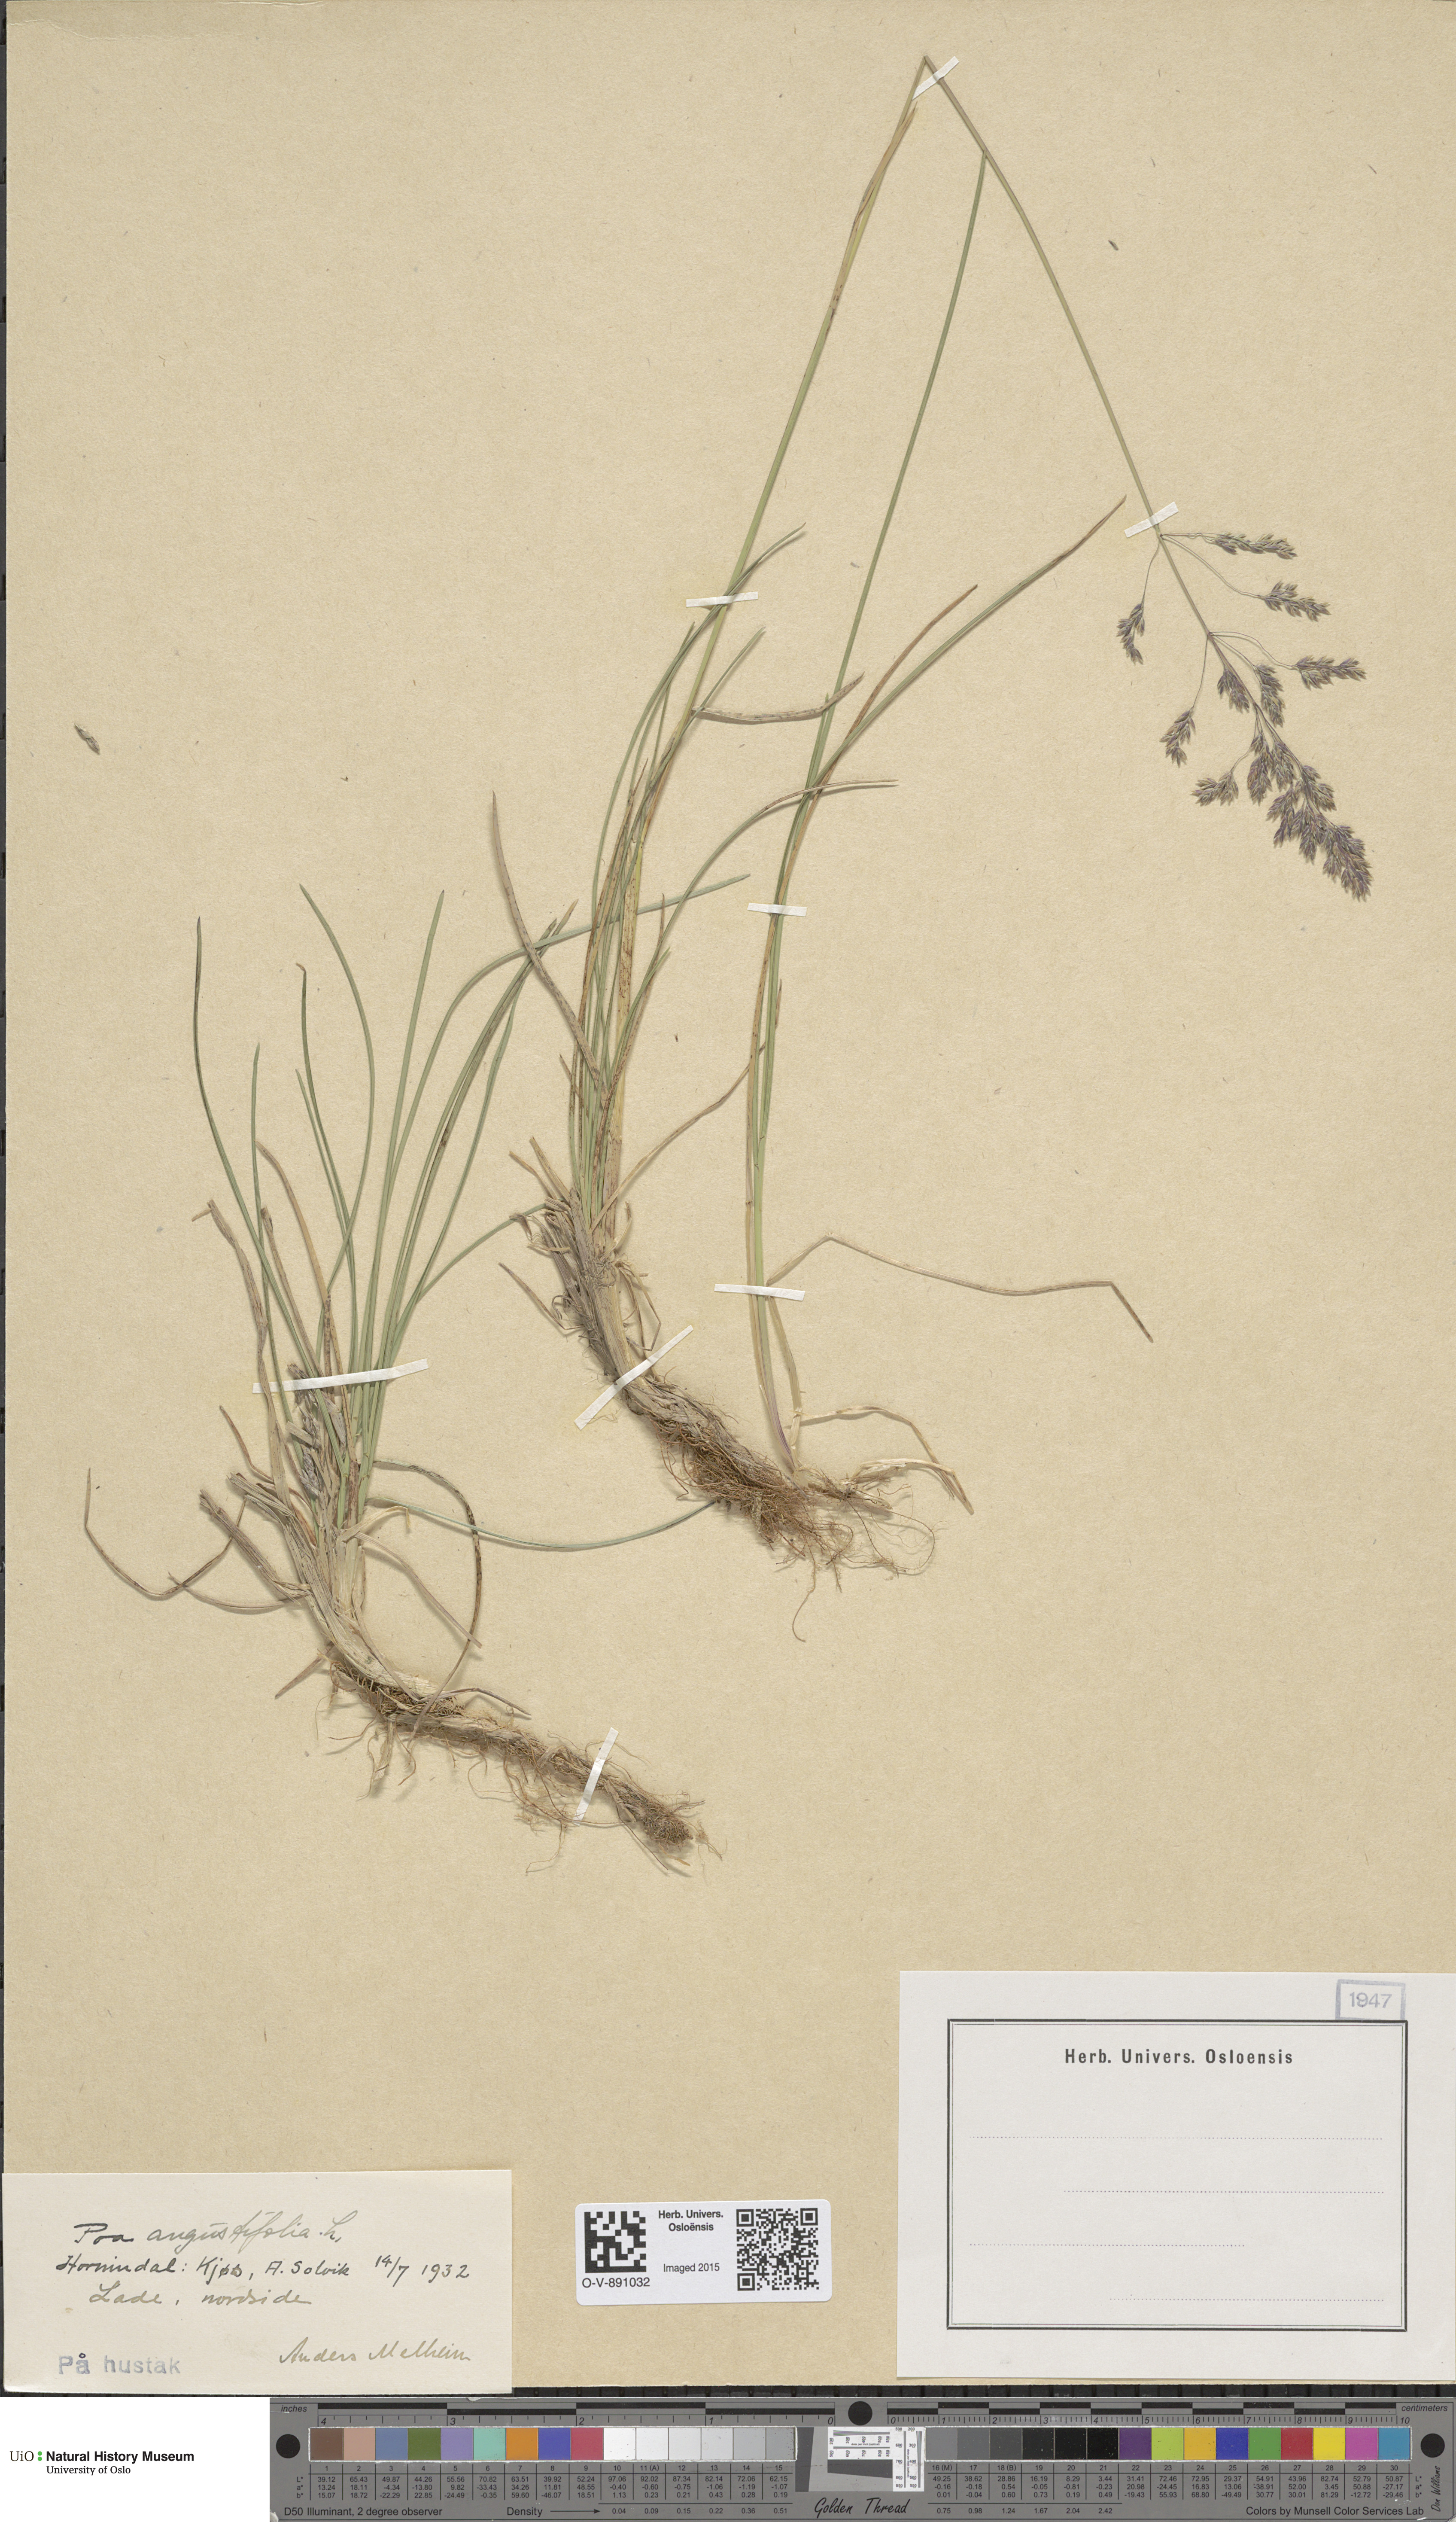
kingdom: Plantae
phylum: Tracheophyta
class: Liliopsida
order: Poales
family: Poaceae
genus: Poa
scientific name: Poa angustifolia
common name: Narrow-leaved meadow-grass
